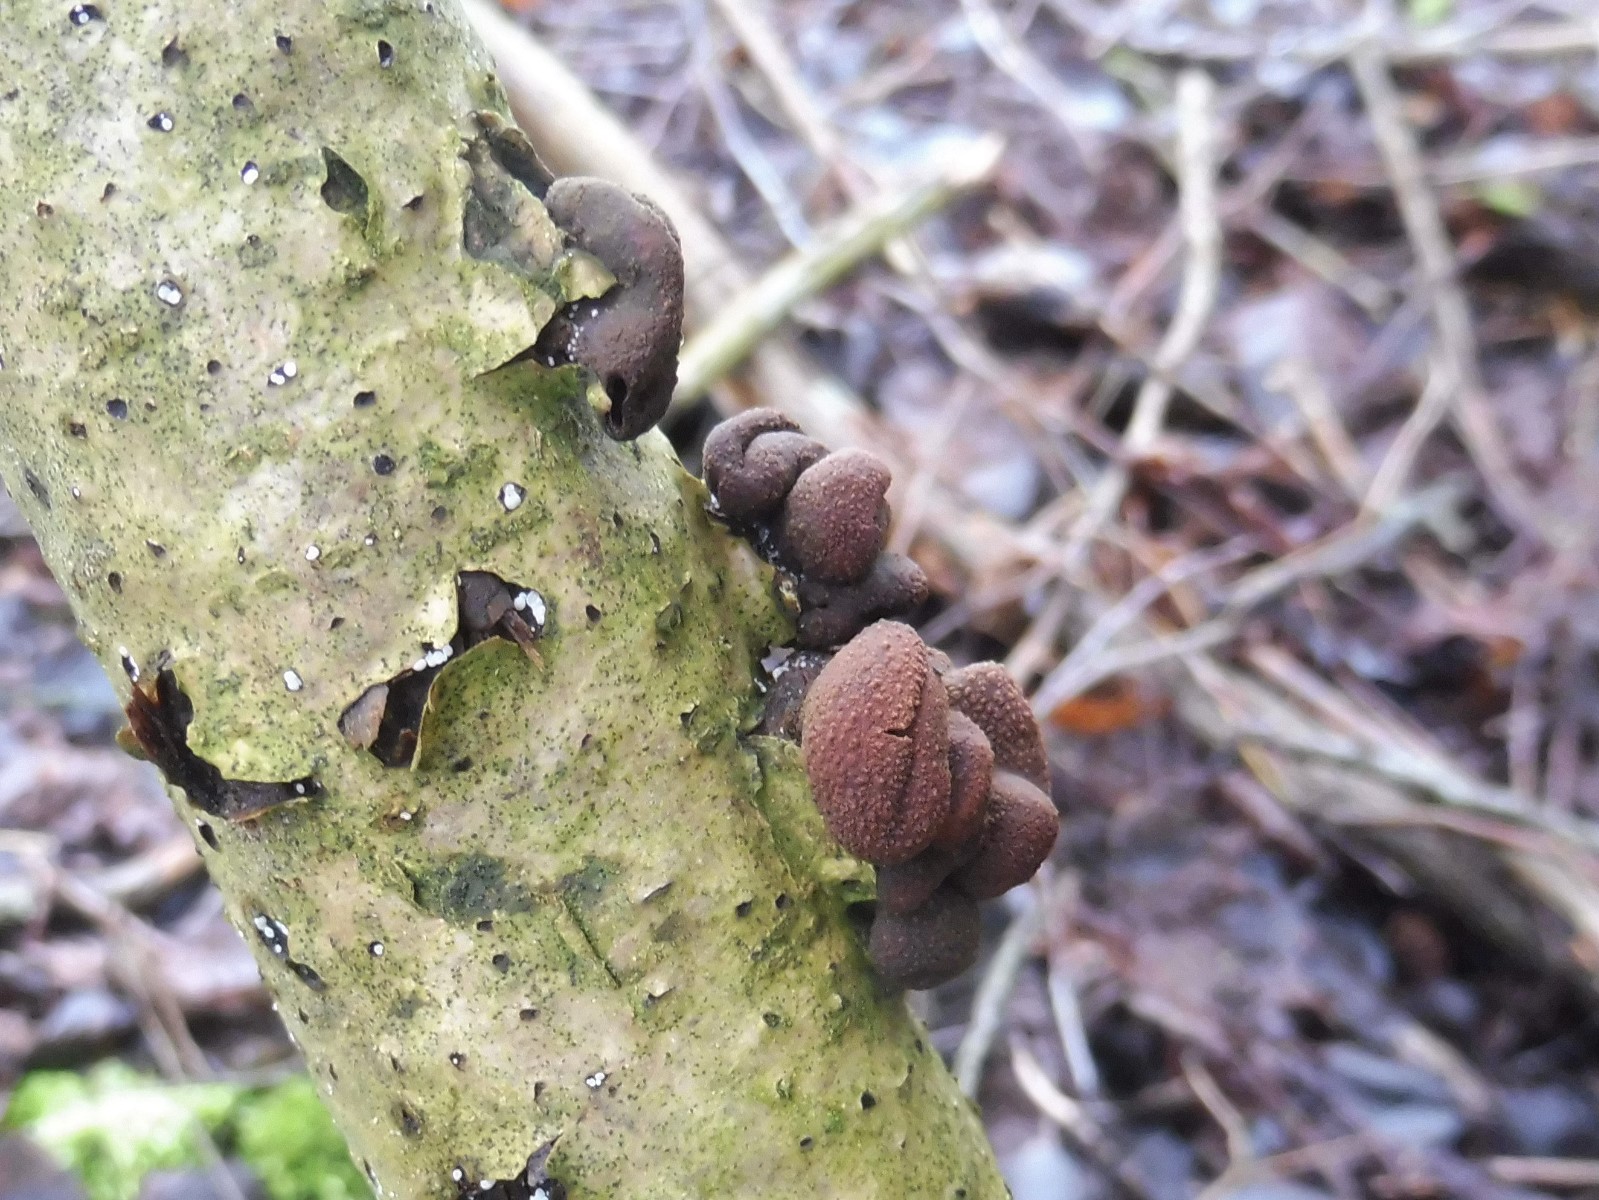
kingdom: Fungi
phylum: Ascomycota
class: Leotiomycetes
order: Helotiales
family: Cenangiaceae
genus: Encoelia
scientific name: Encoelia furfuracea
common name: hassel-læderskive
